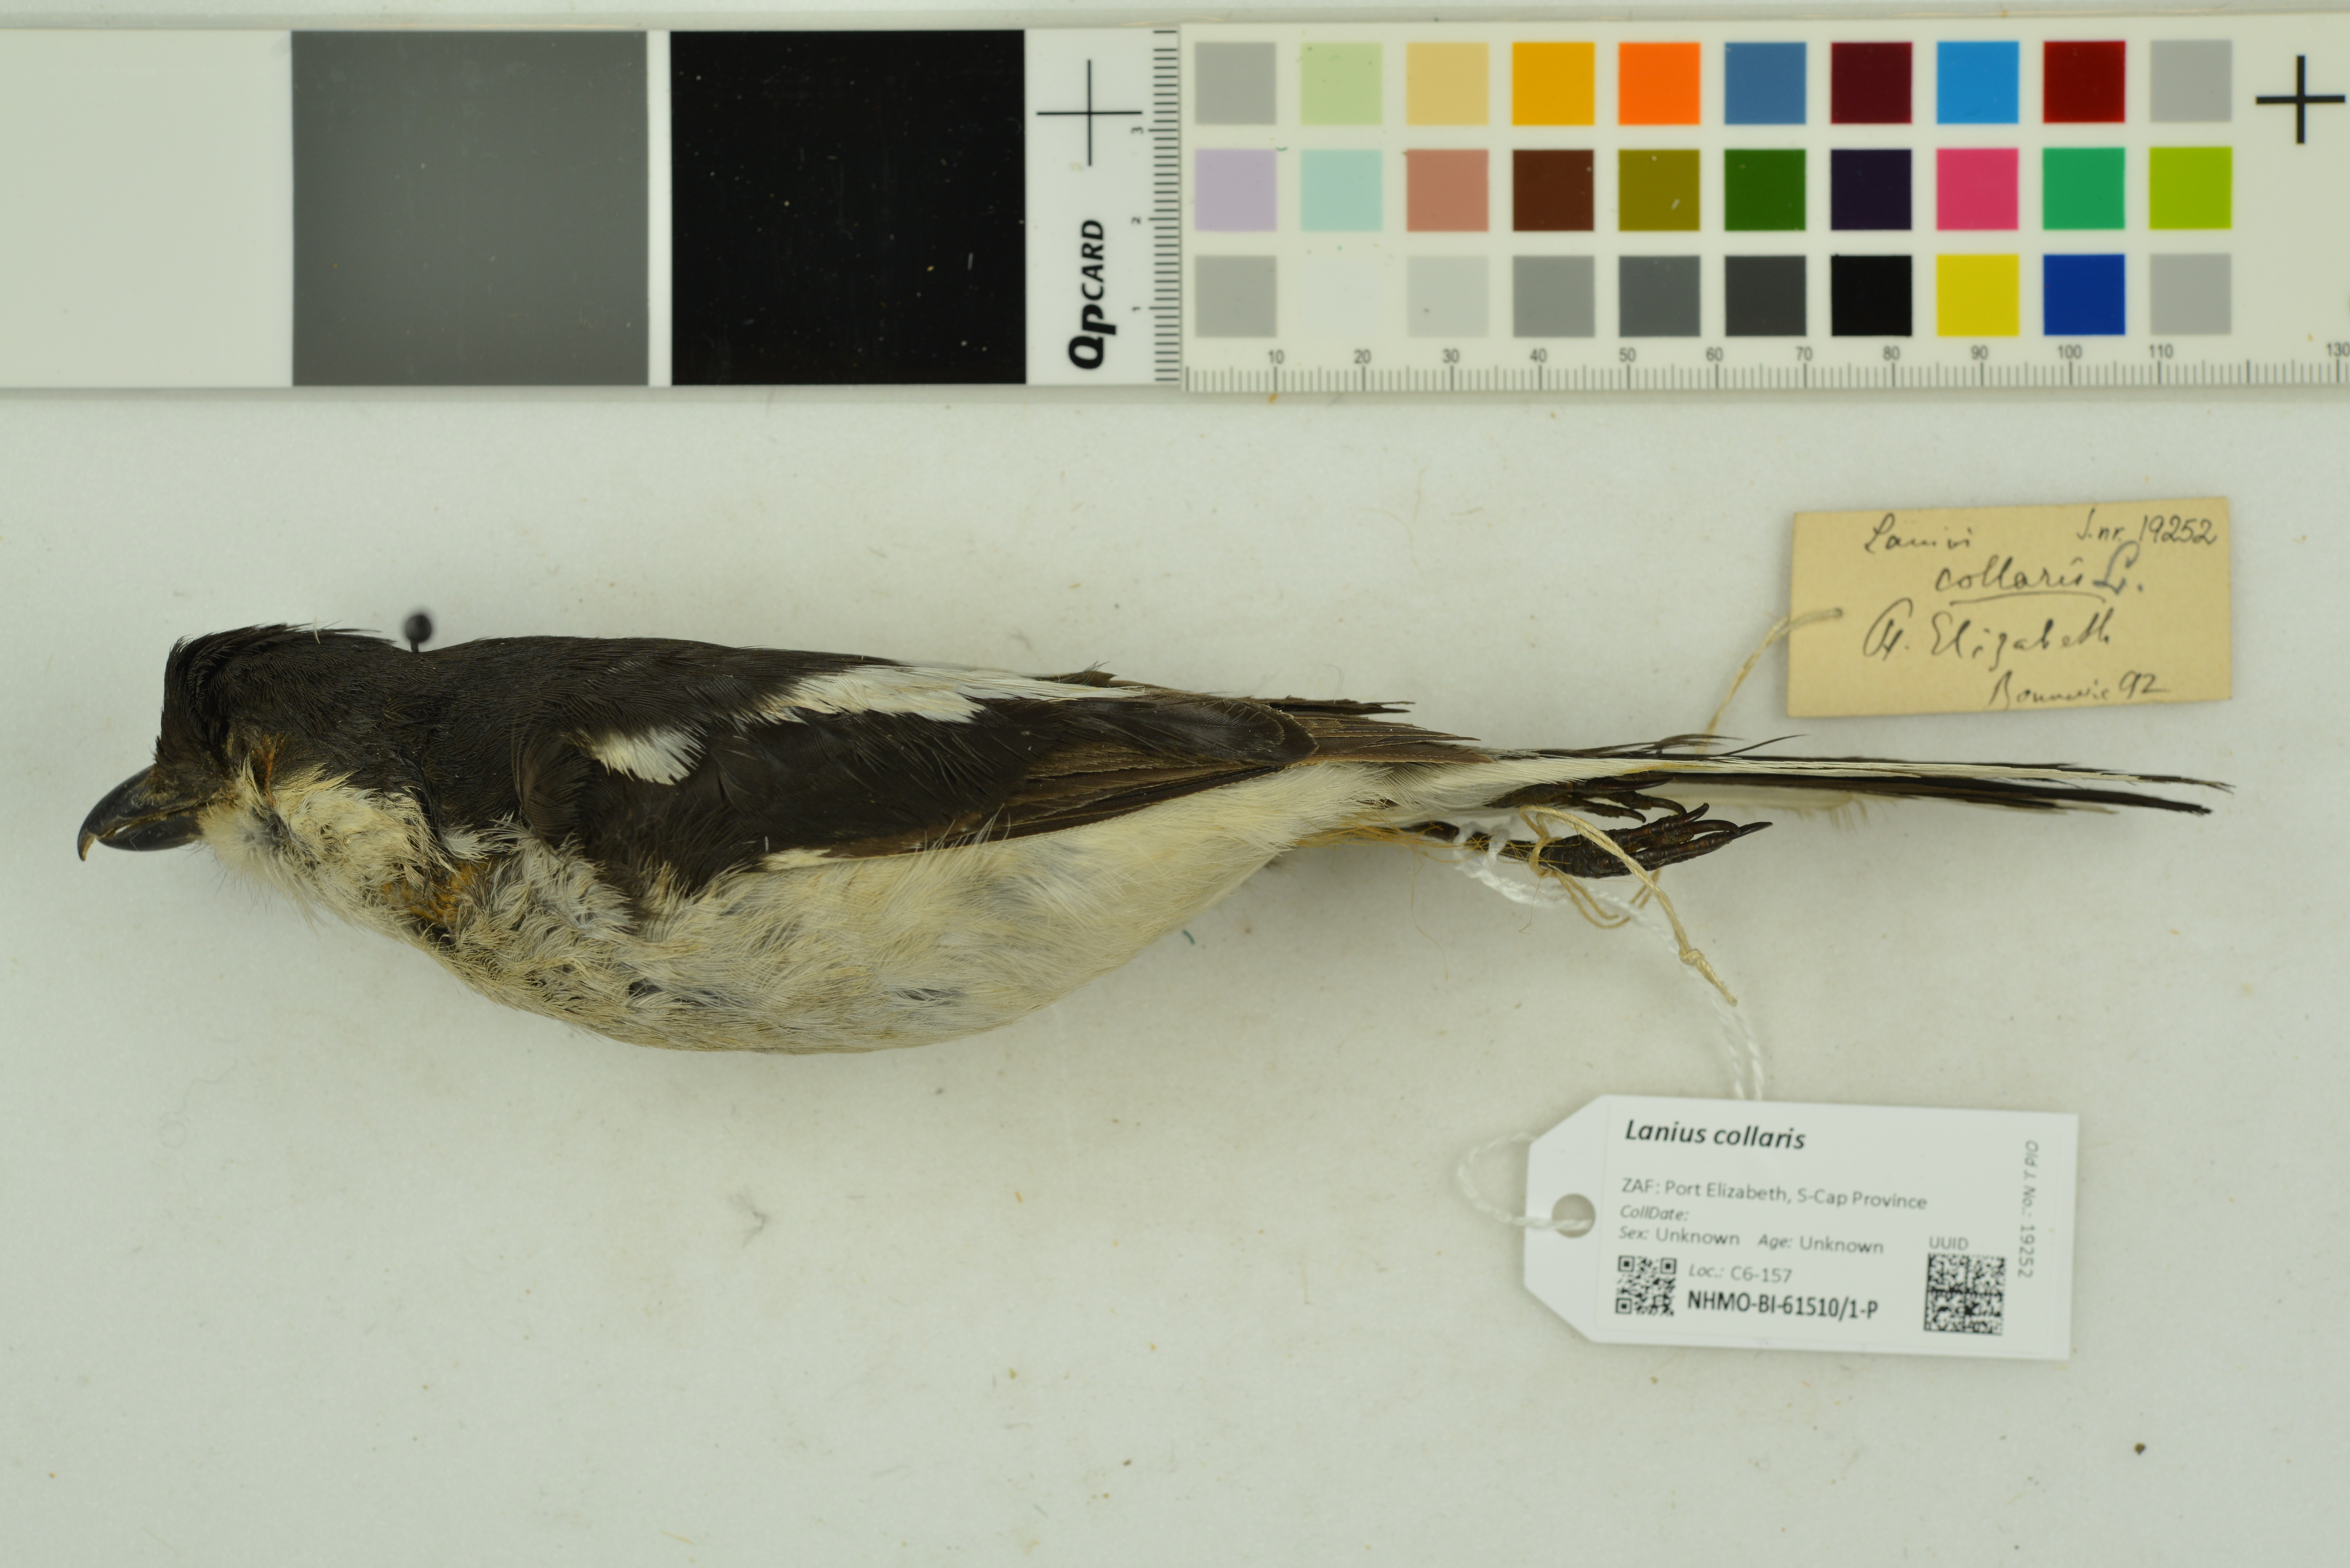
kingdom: Animalia
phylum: Chordata
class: Aves
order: Passeriformes
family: Laniidae
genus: Lanius
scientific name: Lanius collaris
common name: Southern fiscal
